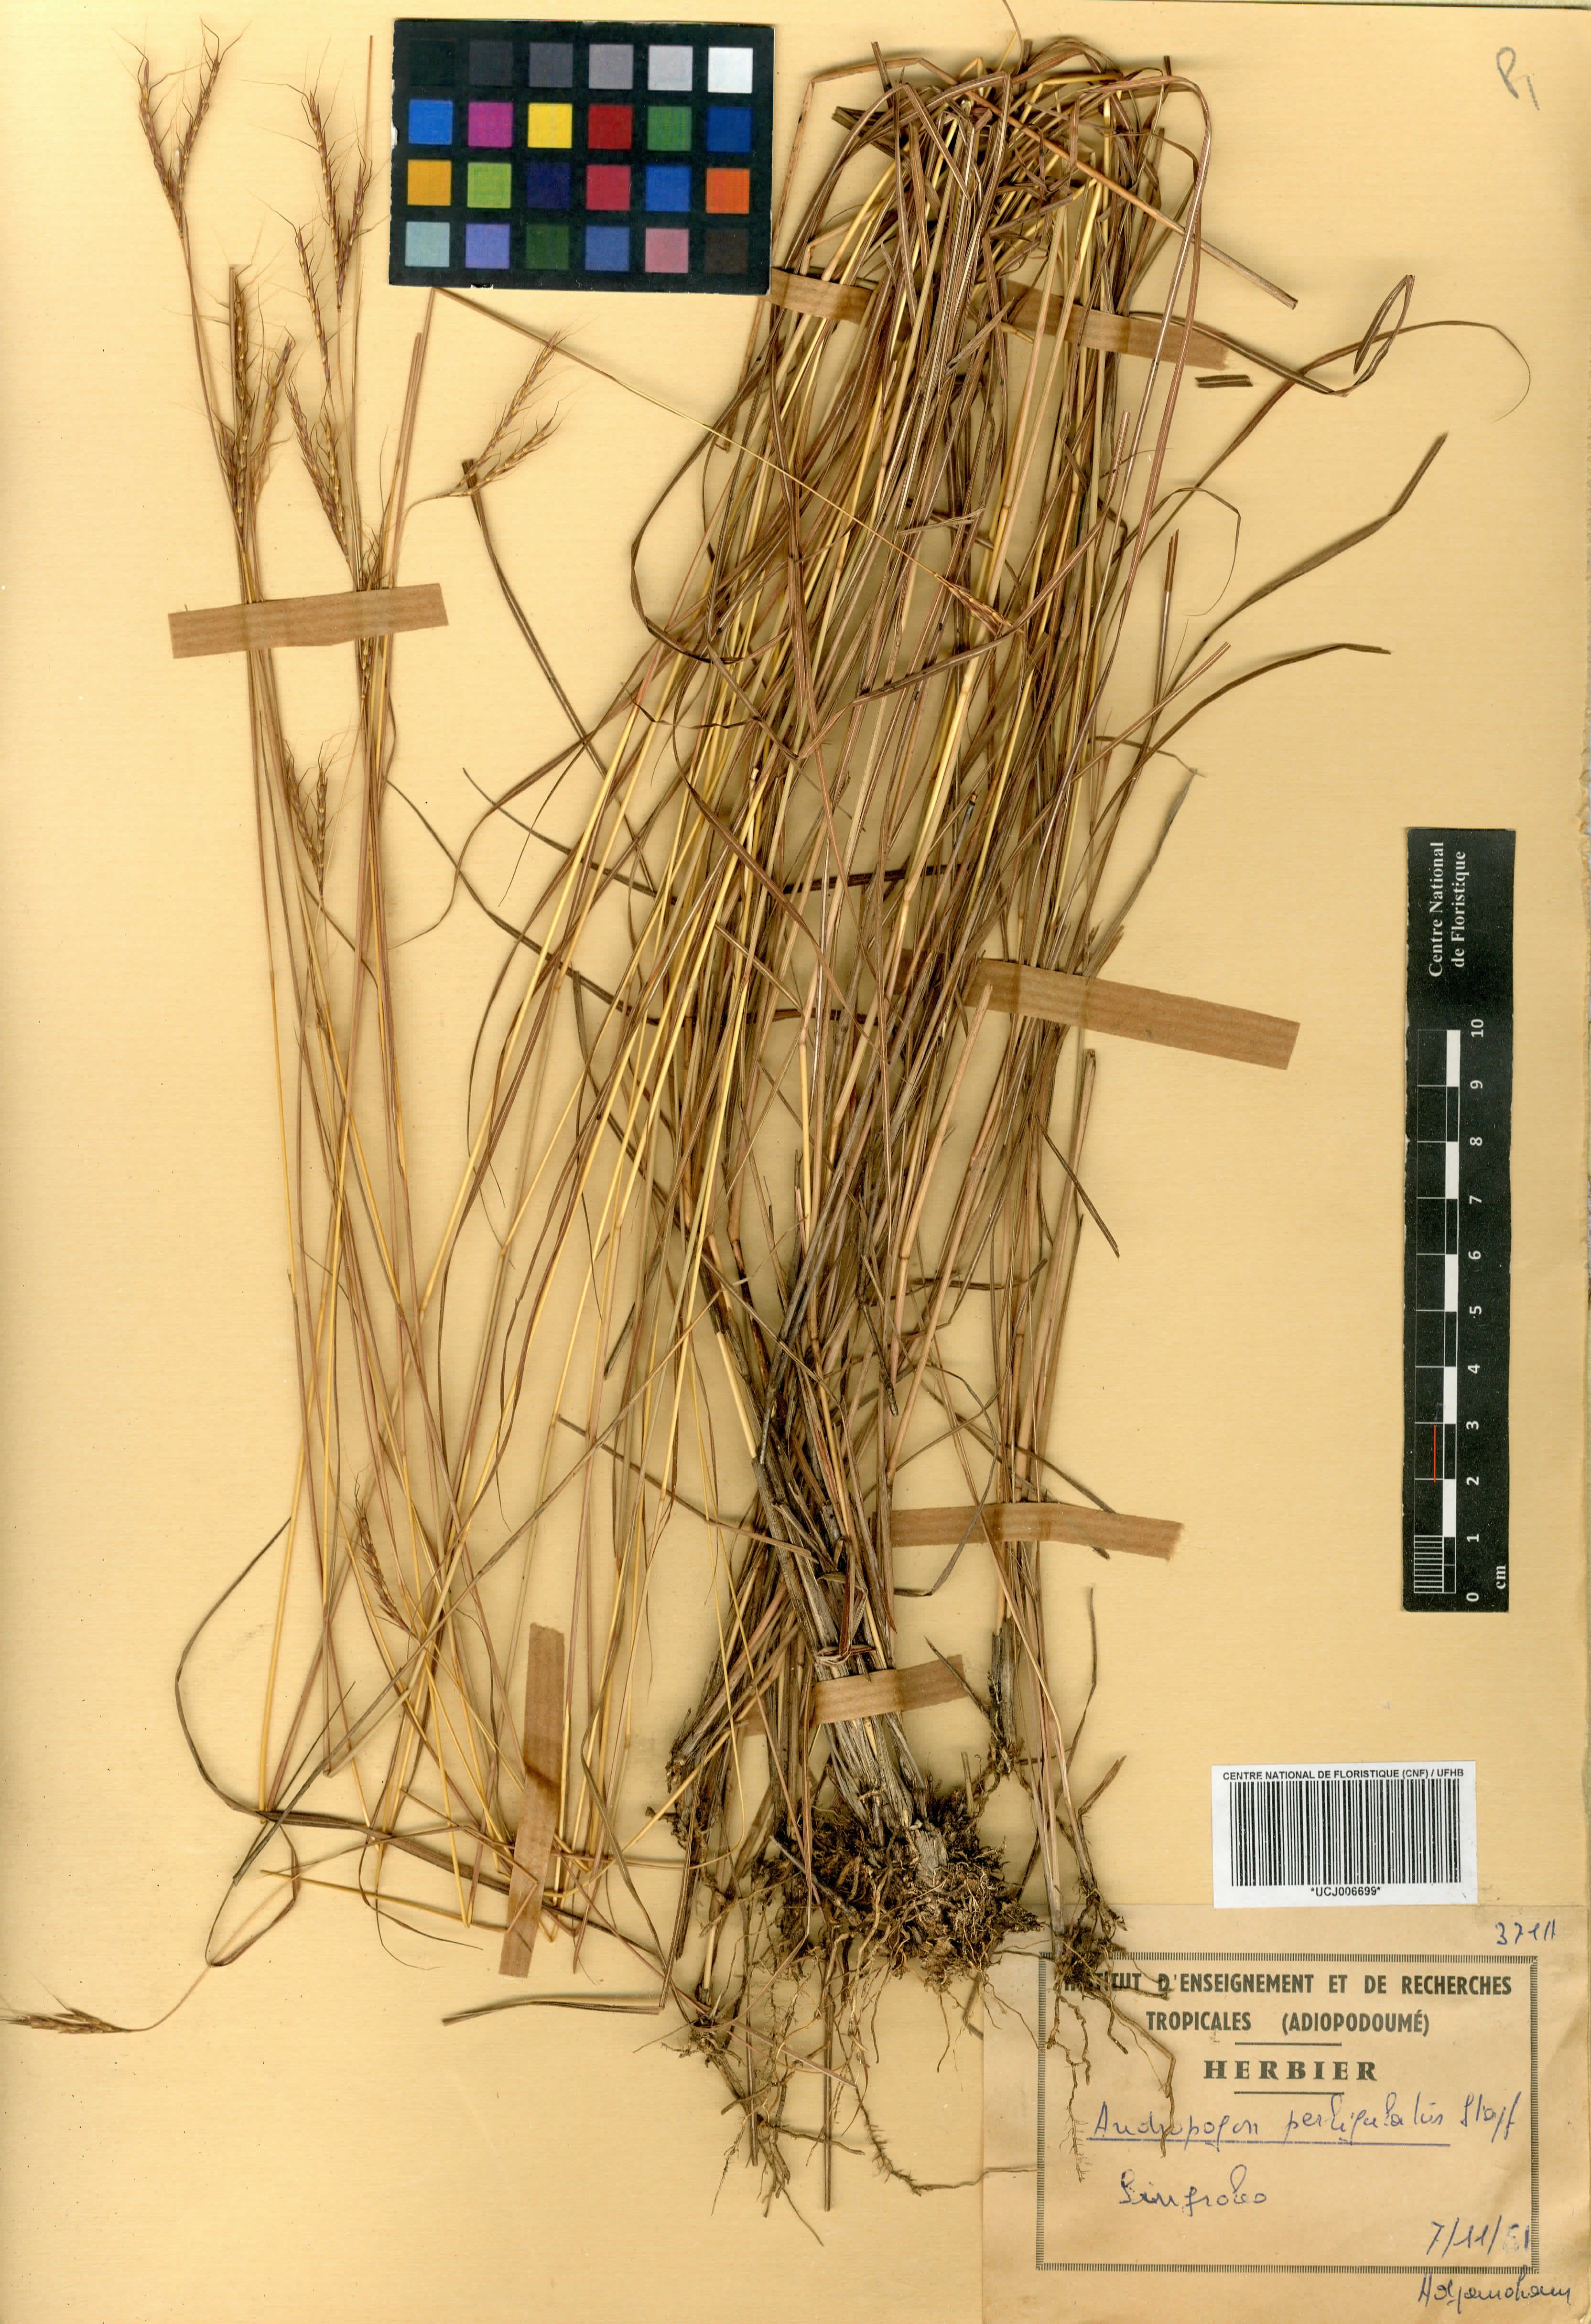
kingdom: Plantae
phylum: Tracheophyta
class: Liliopsida
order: Poales
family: Poaceae
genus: Andropogon
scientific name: Andropogon perligulatus
